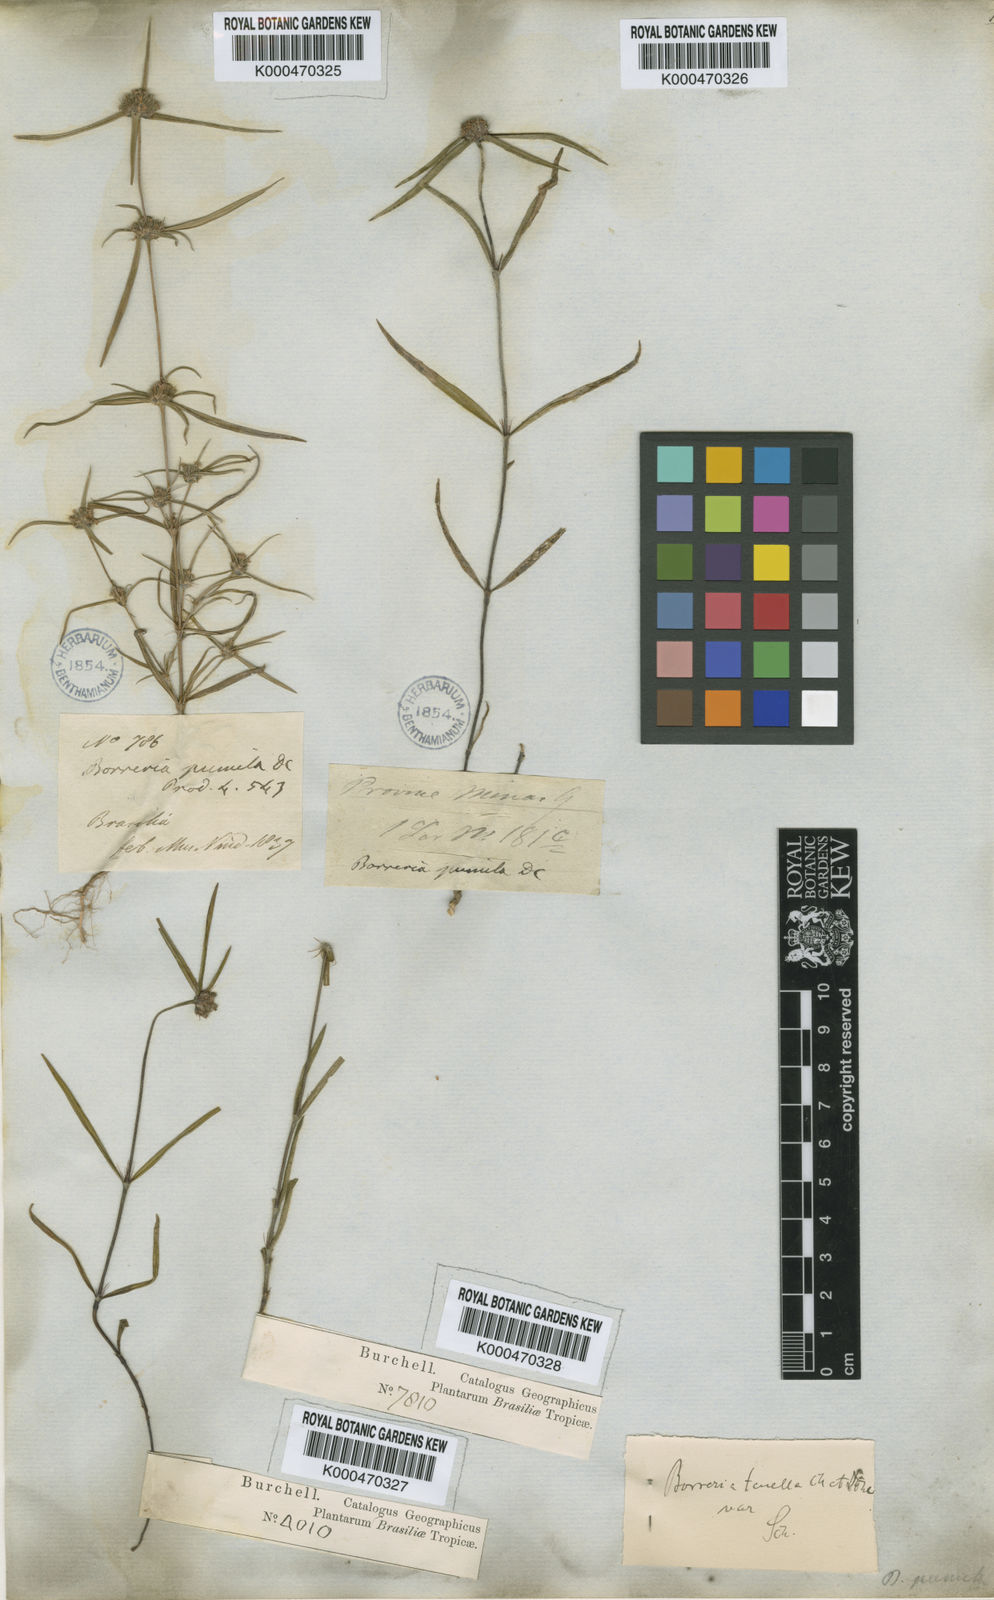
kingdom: Plantae
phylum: Tracheophyta
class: Magnoliopsida
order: Gentianales
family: Rubiaceae
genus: Spermacoce
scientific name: Spermacoce burchellii
